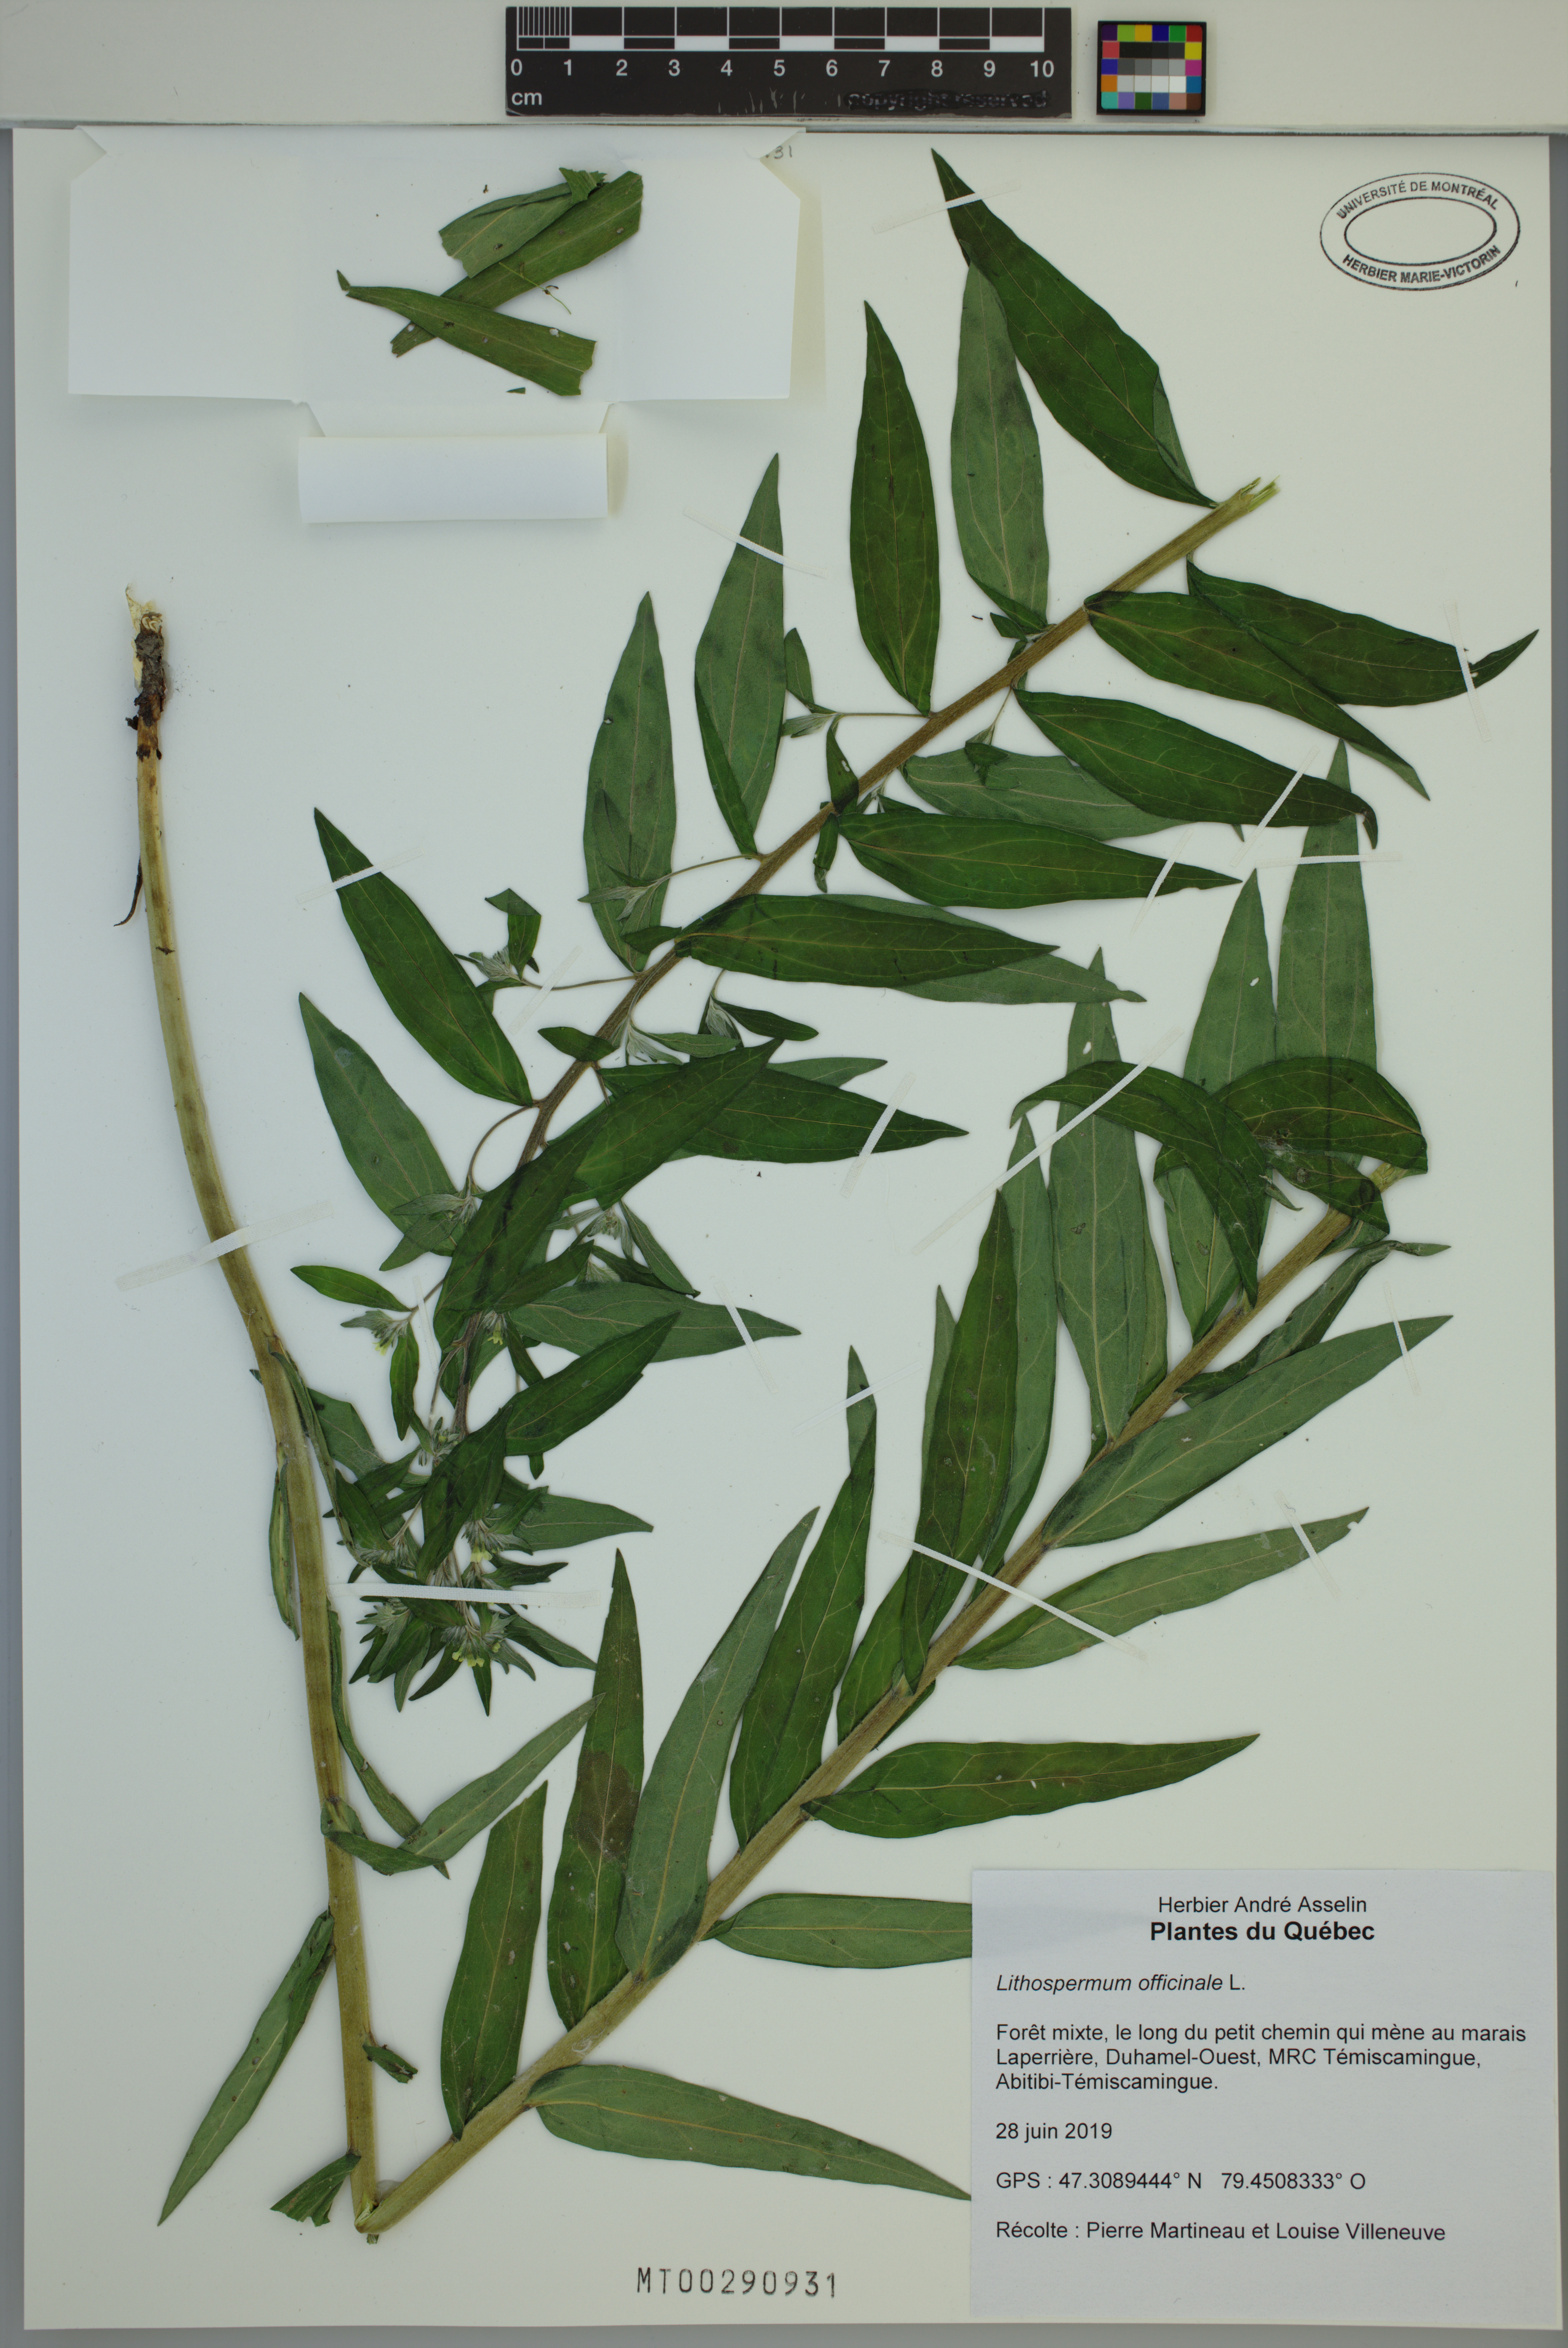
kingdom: Plantae
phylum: Tracheophyta
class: Magnoliopsida
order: Boraginales
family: Boraginaceae
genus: Lithospermum
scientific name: Lithospermum officinale
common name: Common gromwell
